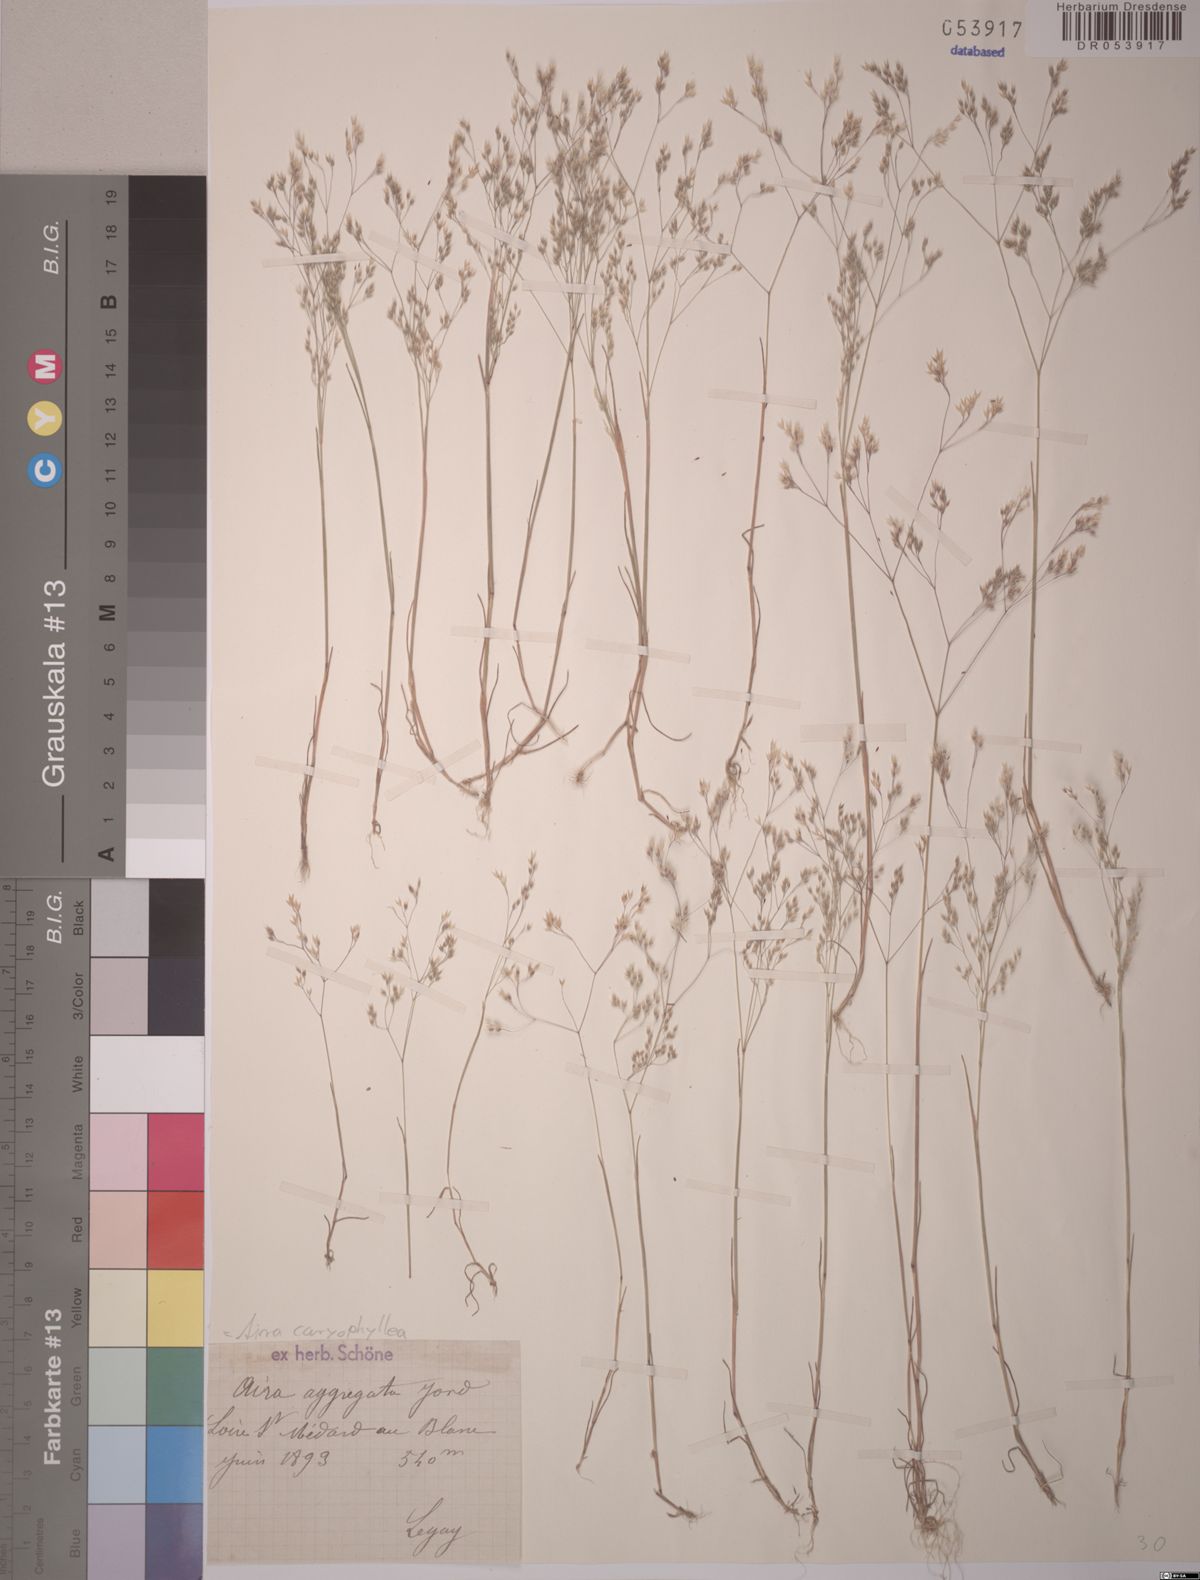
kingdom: Plantae
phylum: Tracheophyta
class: Liliopsida
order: Poales
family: Poaceae
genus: Aira
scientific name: Aira caryophyllea
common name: Silver hairgrass
